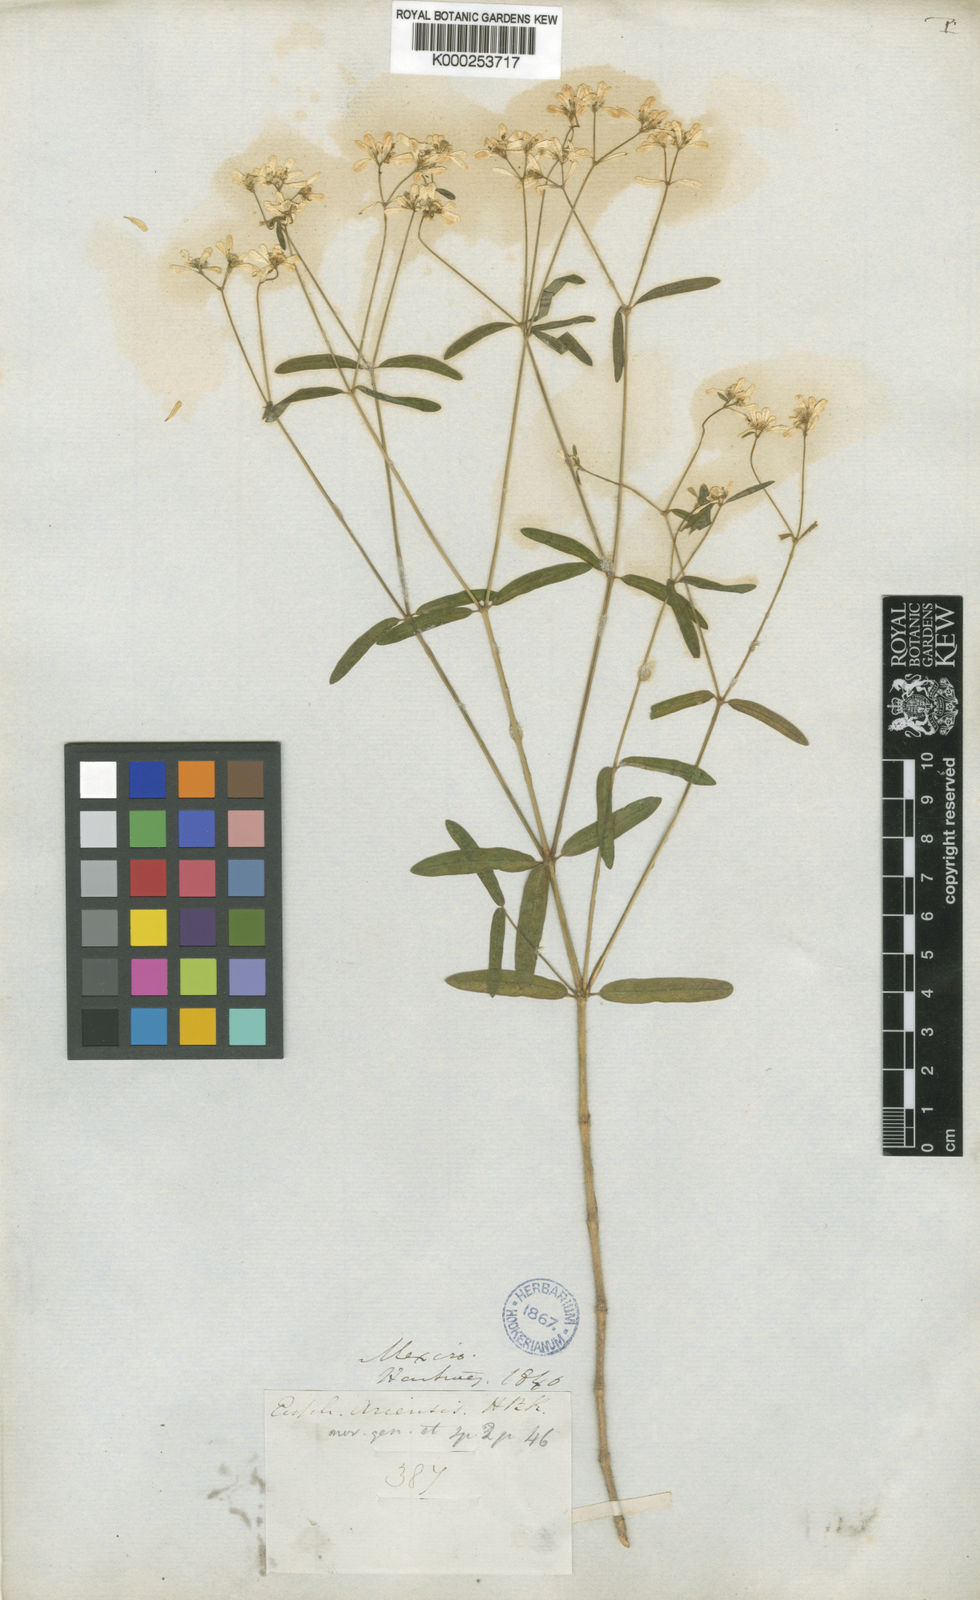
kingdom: Plantae
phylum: Tracheophyta
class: Magnoliopsida
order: Malpighiales
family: Euphorbiaceae
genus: Euphorbia
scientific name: Euphorbia ariensis
